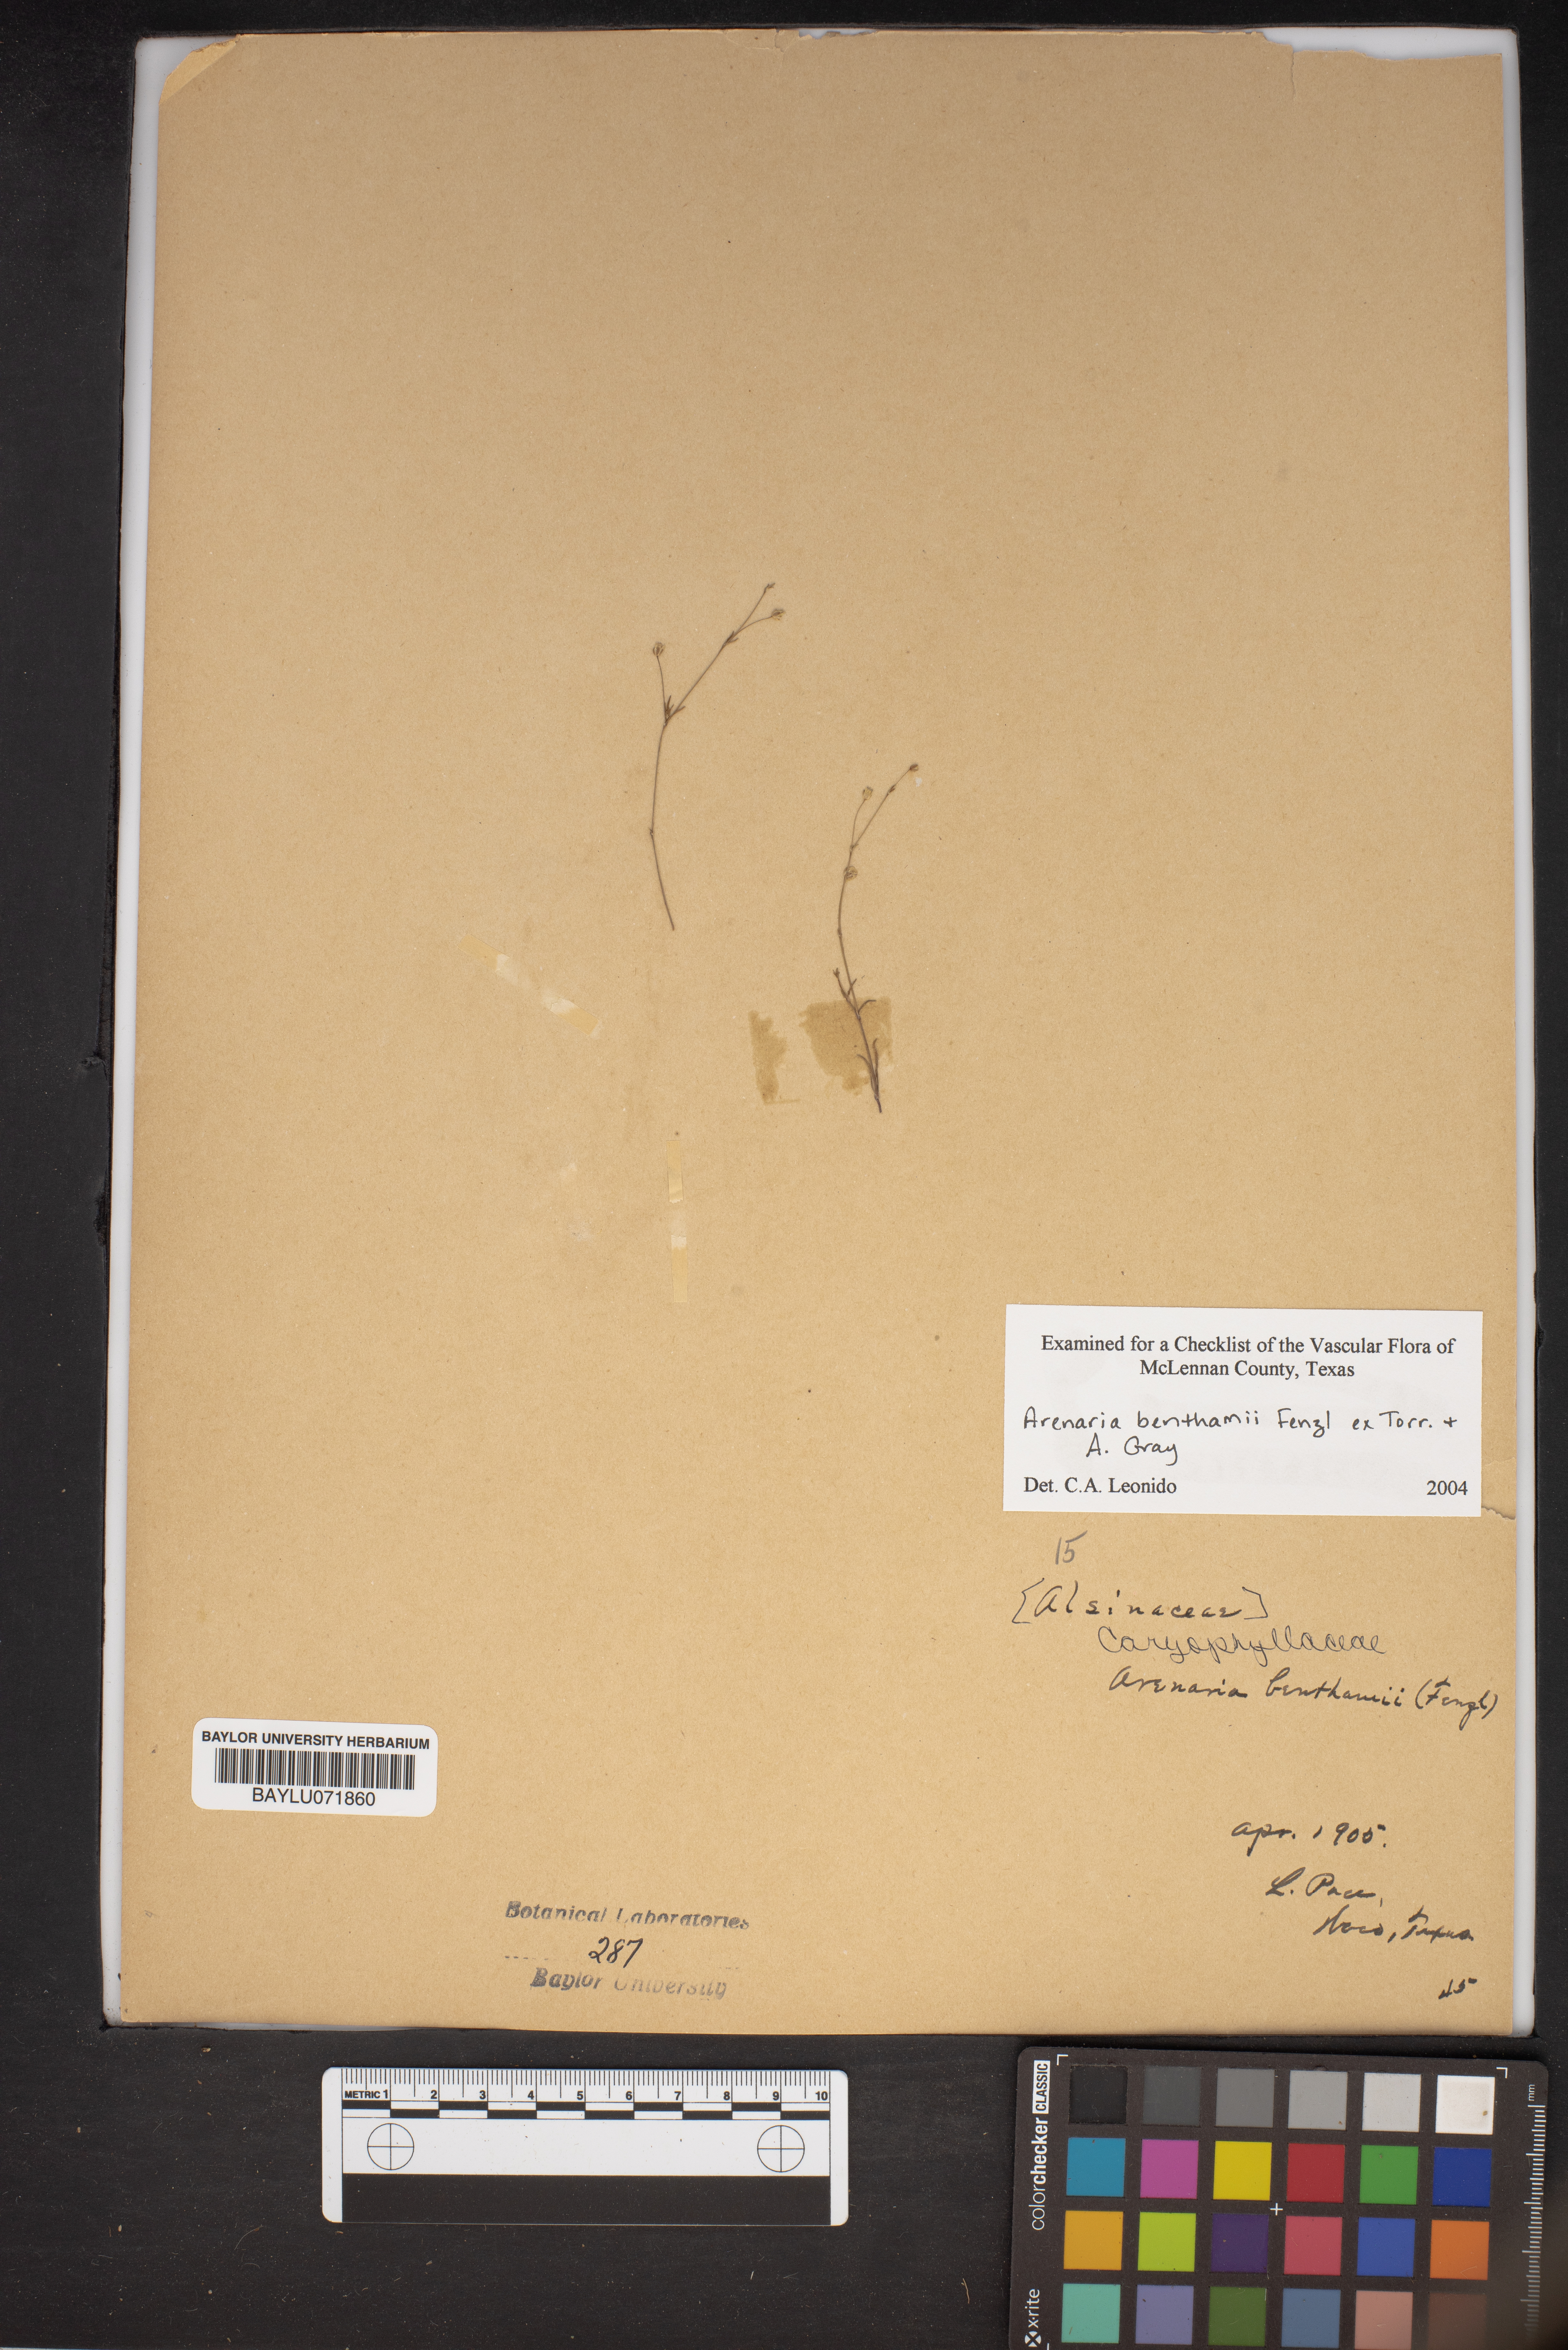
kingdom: Plantae
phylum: Tracheophyta
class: Magnoliopsida
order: Caryophyllales
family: Caryophyllaceae
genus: Arenaria
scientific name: Arenaria benthamii
